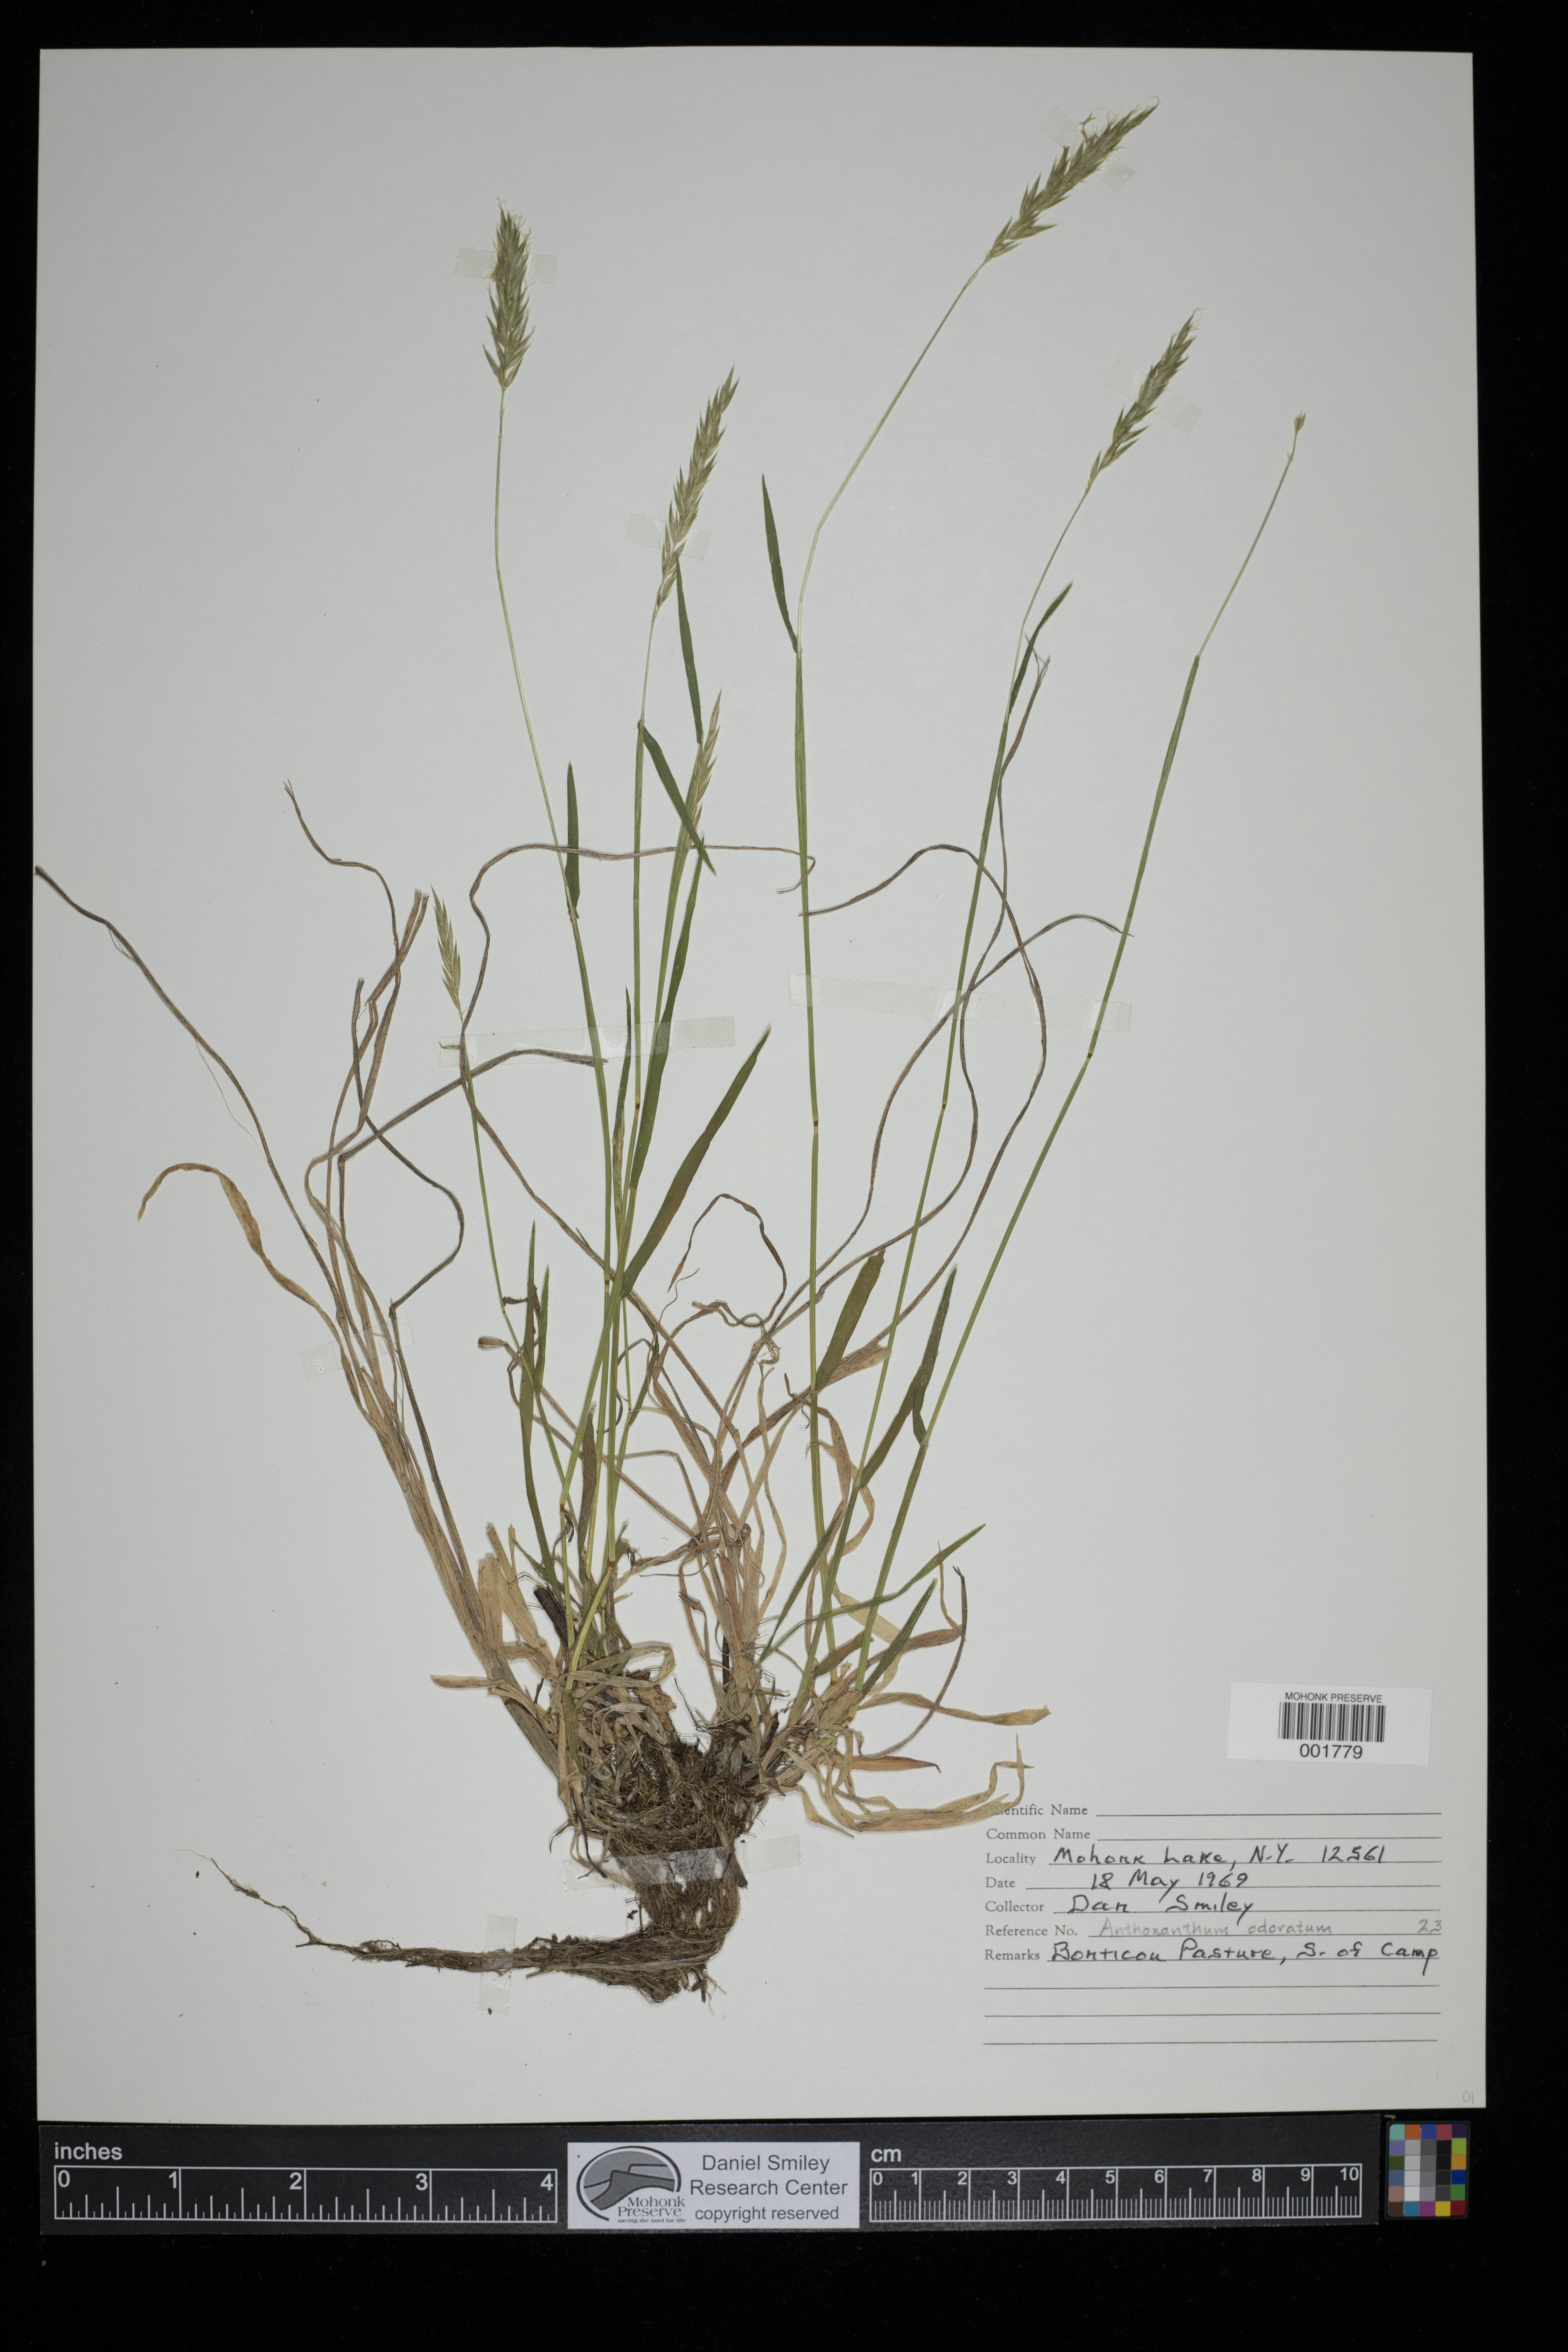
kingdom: Plantae
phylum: Tracheophyta
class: Liliopsida
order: Poales
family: Poaceae
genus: Anthoxanthum
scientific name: Anthoxanthum odoratum
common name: Sweet vernalgrass
